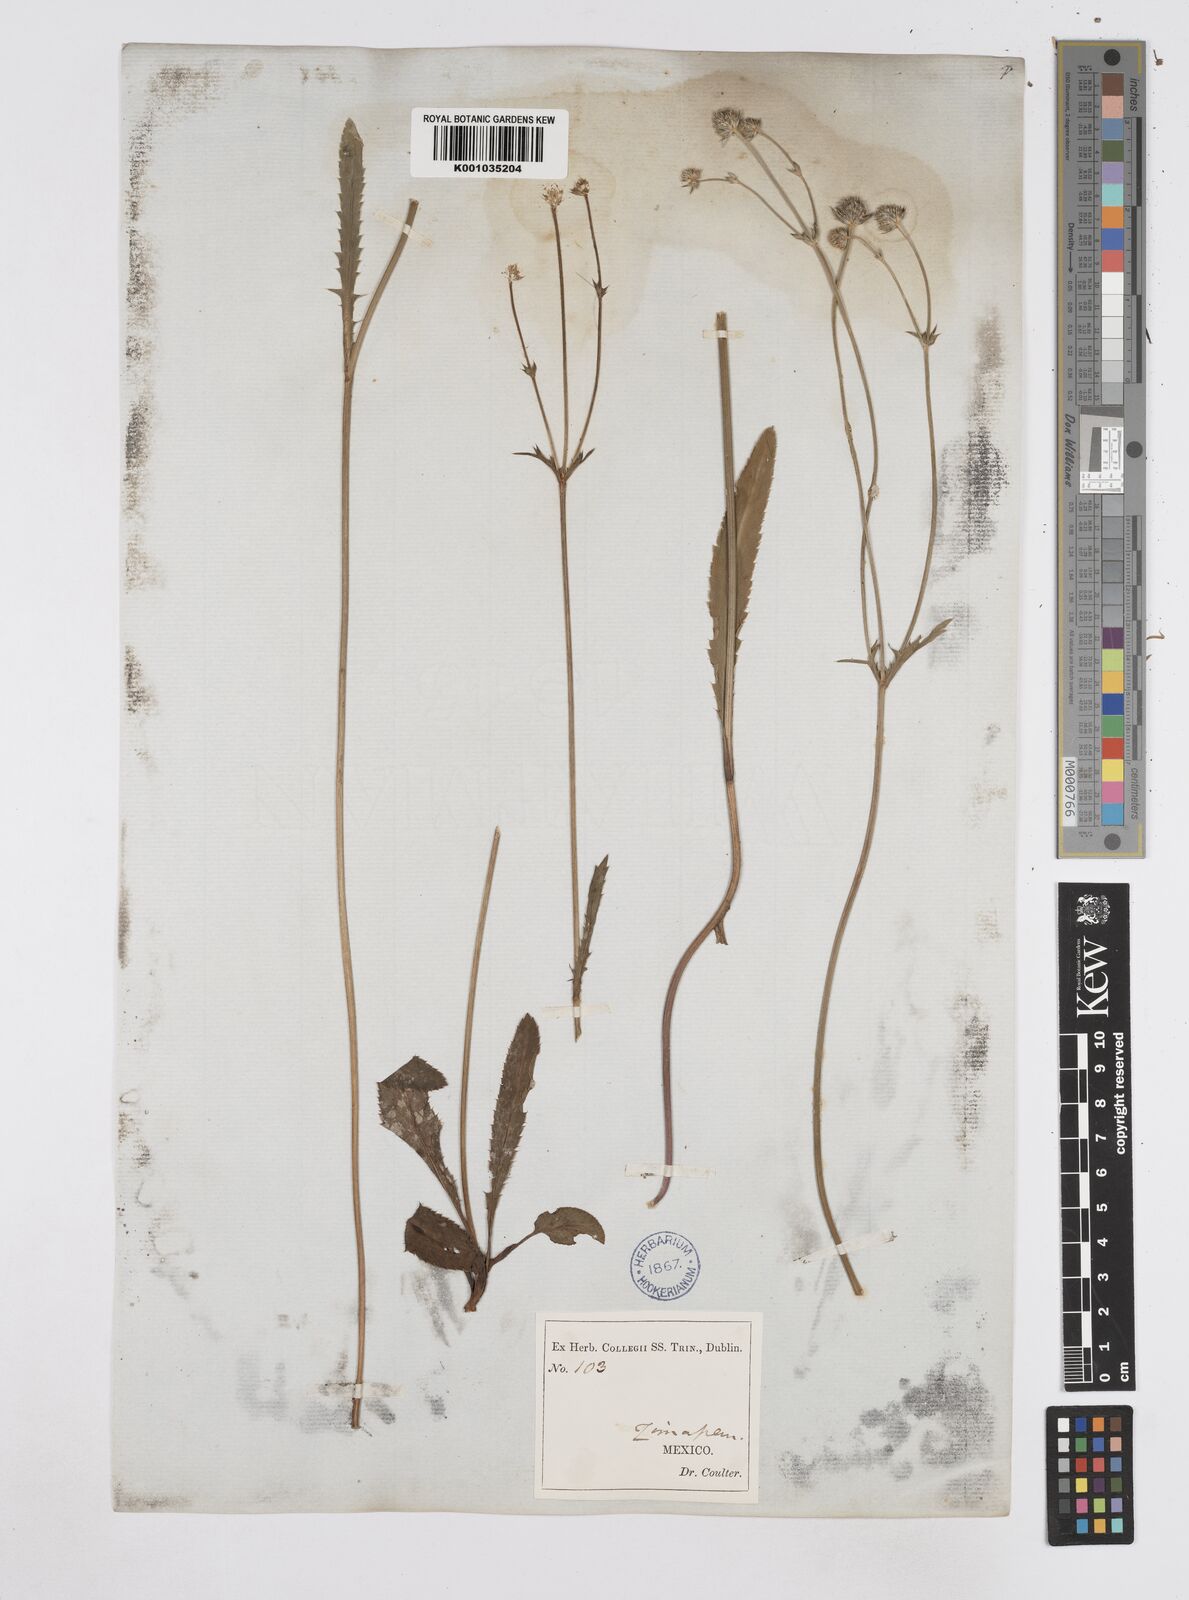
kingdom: Plantae
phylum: Tracheophyta
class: Magnoliopsida
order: Apiales
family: Apiaceae
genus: Eryngium
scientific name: Eryngium serratum
